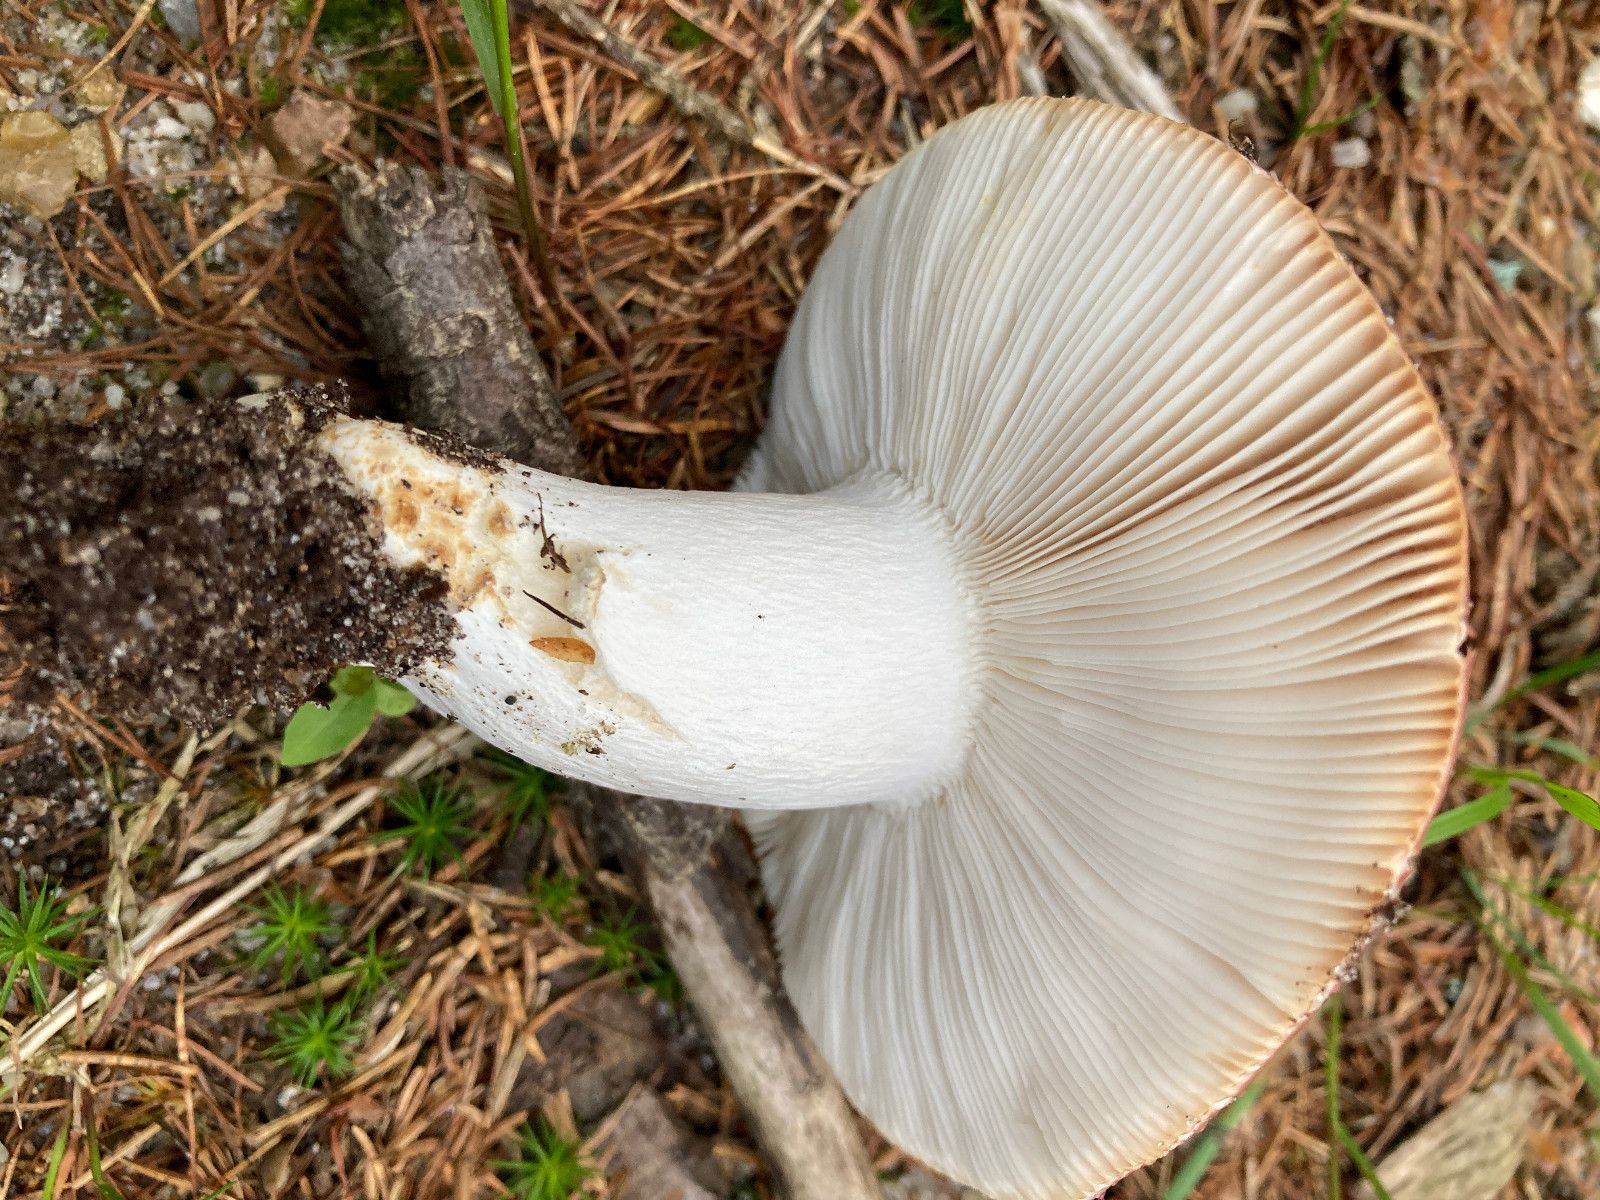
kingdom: Fungi
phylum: Basidiomycota
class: Agaricomycetes
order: Russulales
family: Russulaceae
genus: Russula
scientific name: Russula vesca
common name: spiselig skørhat
